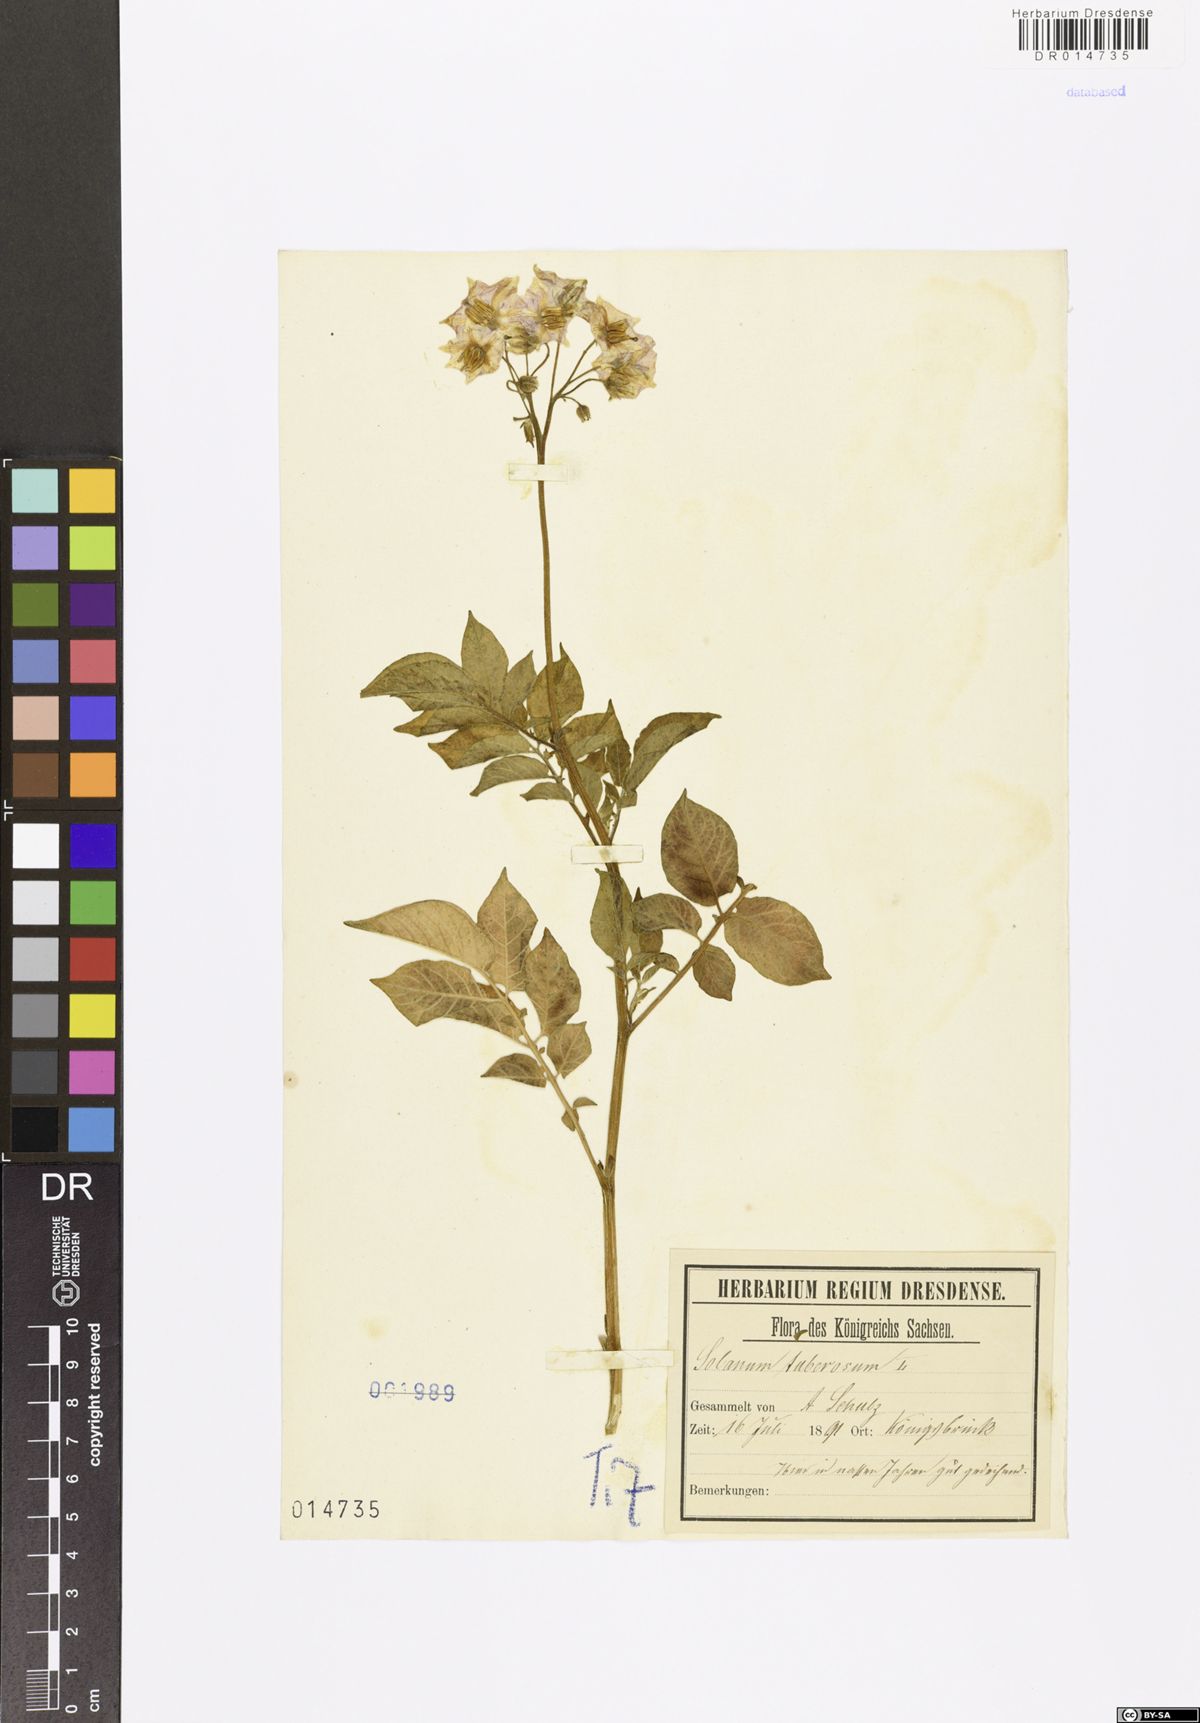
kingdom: Plantae
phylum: Tracheophyta
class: Magnoliopsida
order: Solanales
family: Solanaceae
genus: Solanum
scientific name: Solanum tuberosum
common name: Potato
